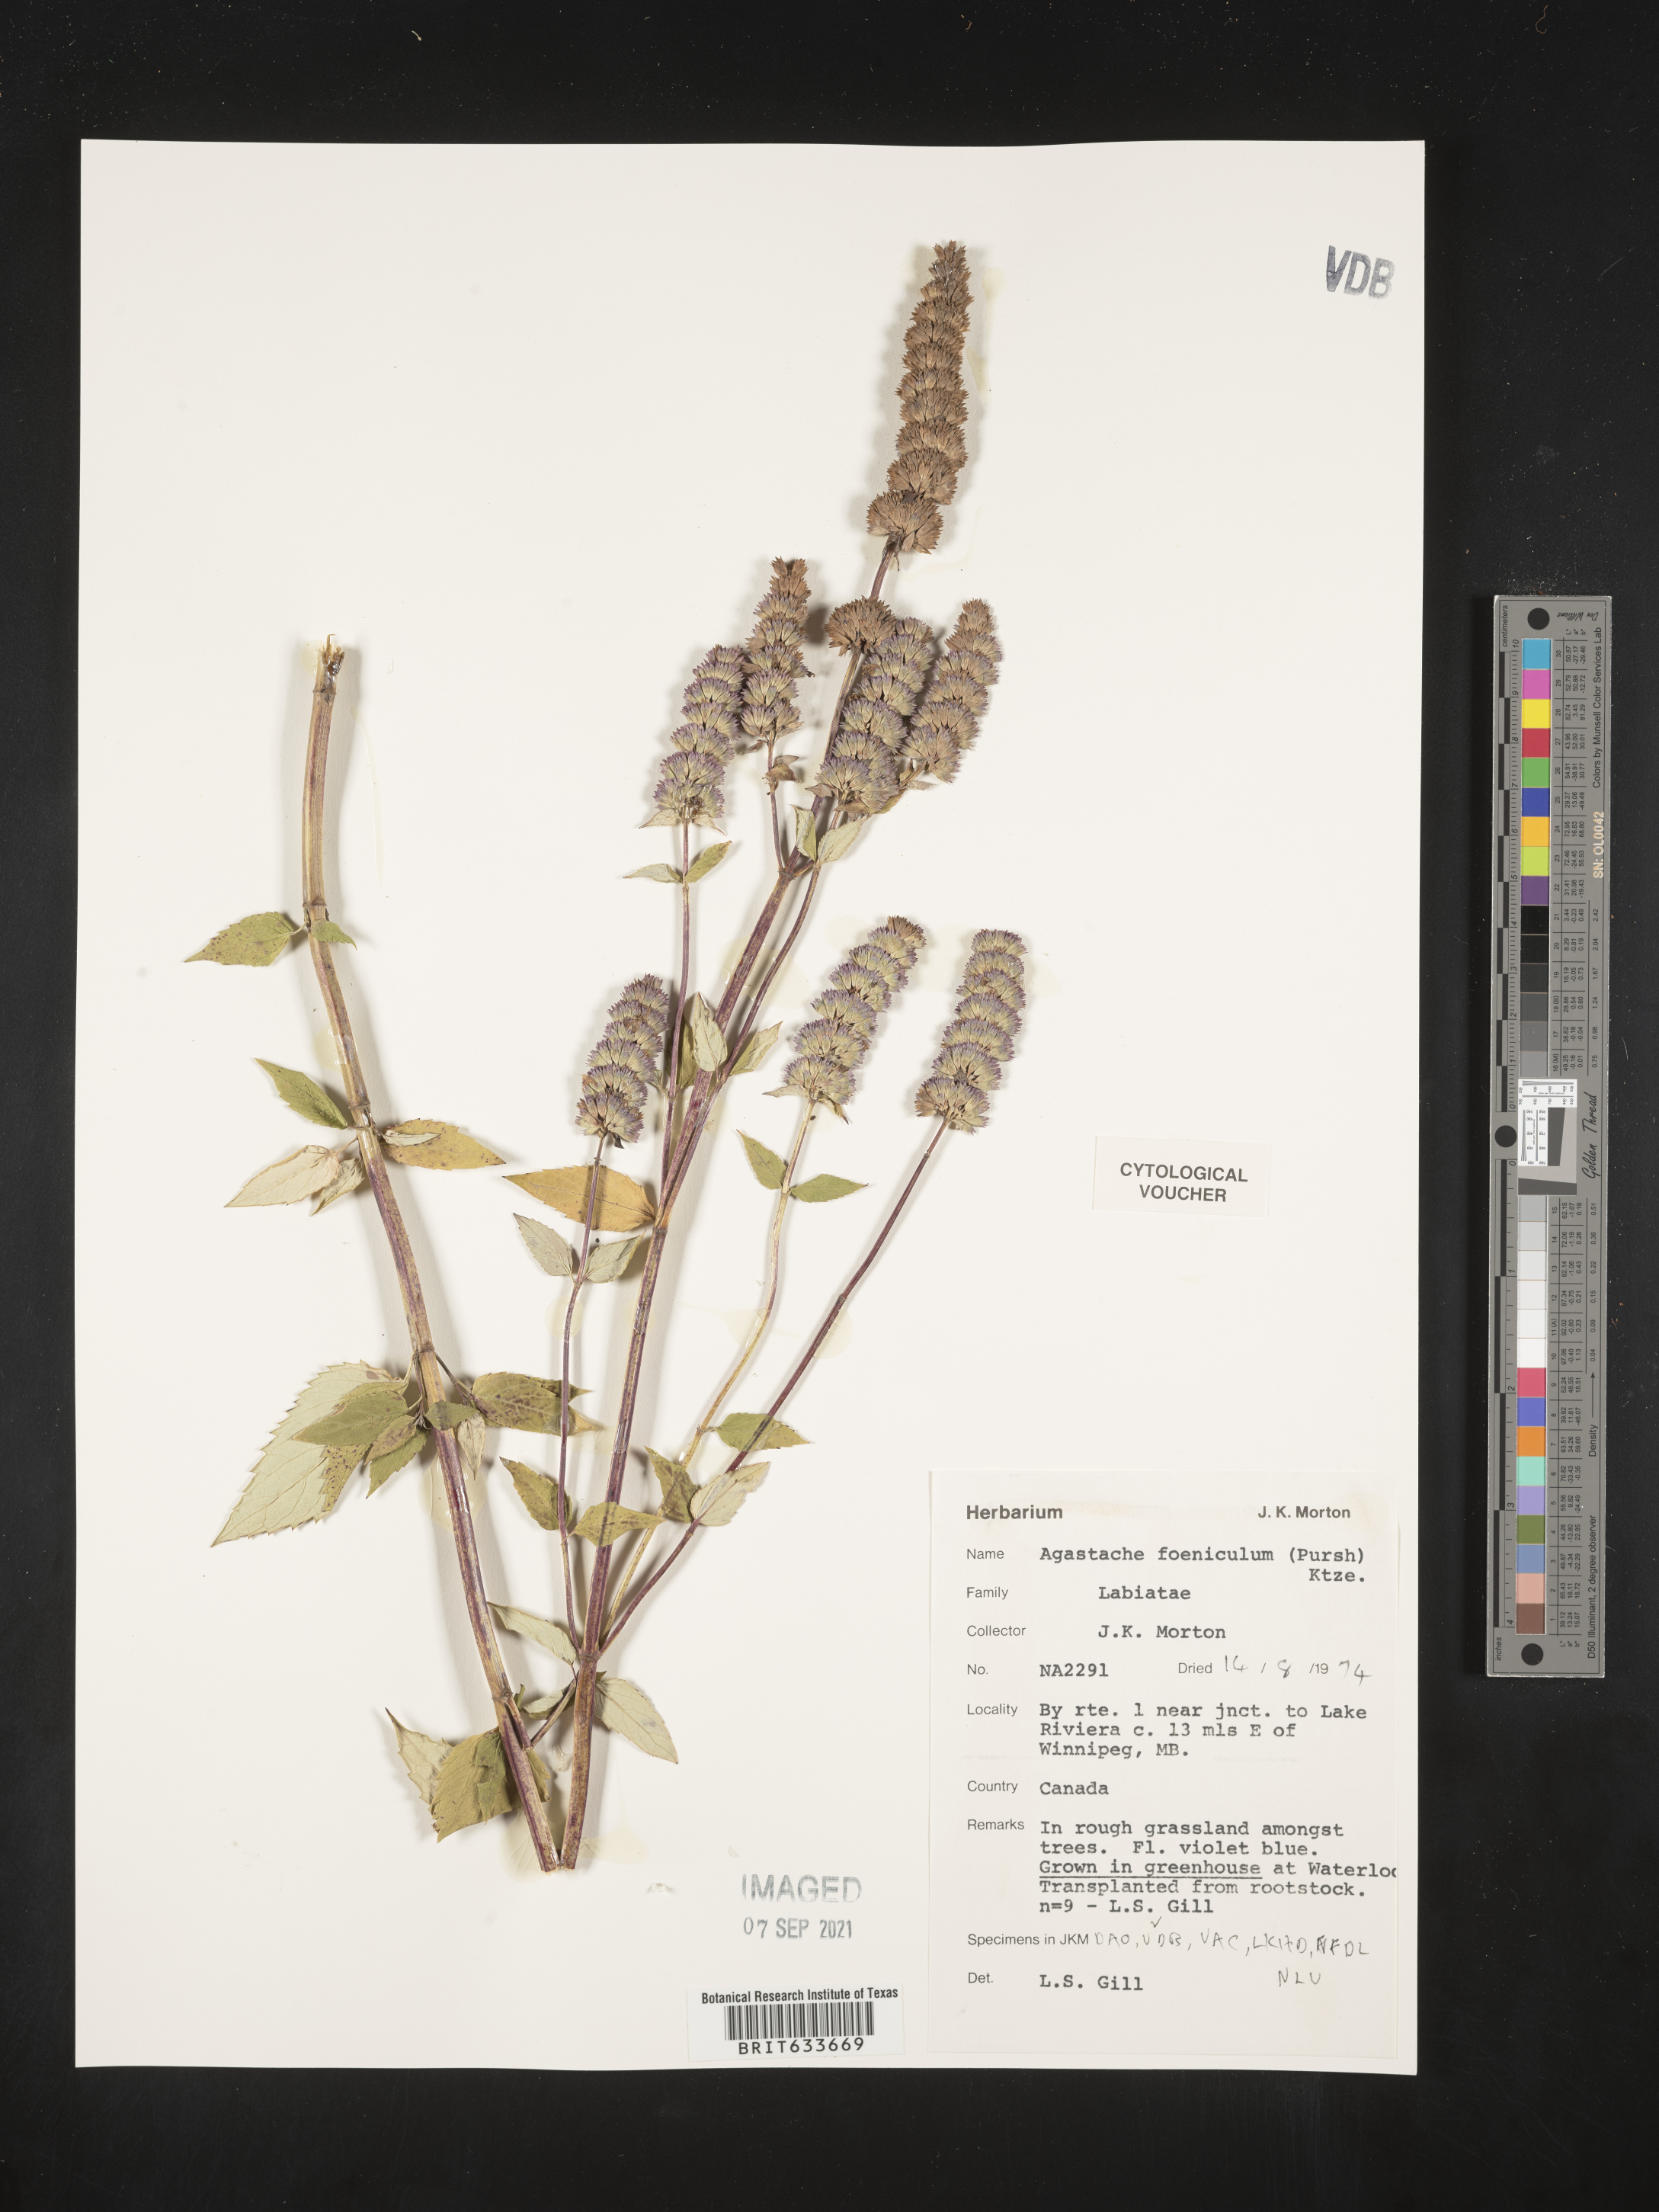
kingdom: Plantae
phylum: Tracheophyta
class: Magnoliopsida
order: Solanales
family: Convolvulaceae
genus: Ipomoea
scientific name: Ipomoea pandurata
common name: Man-of-the-earth
